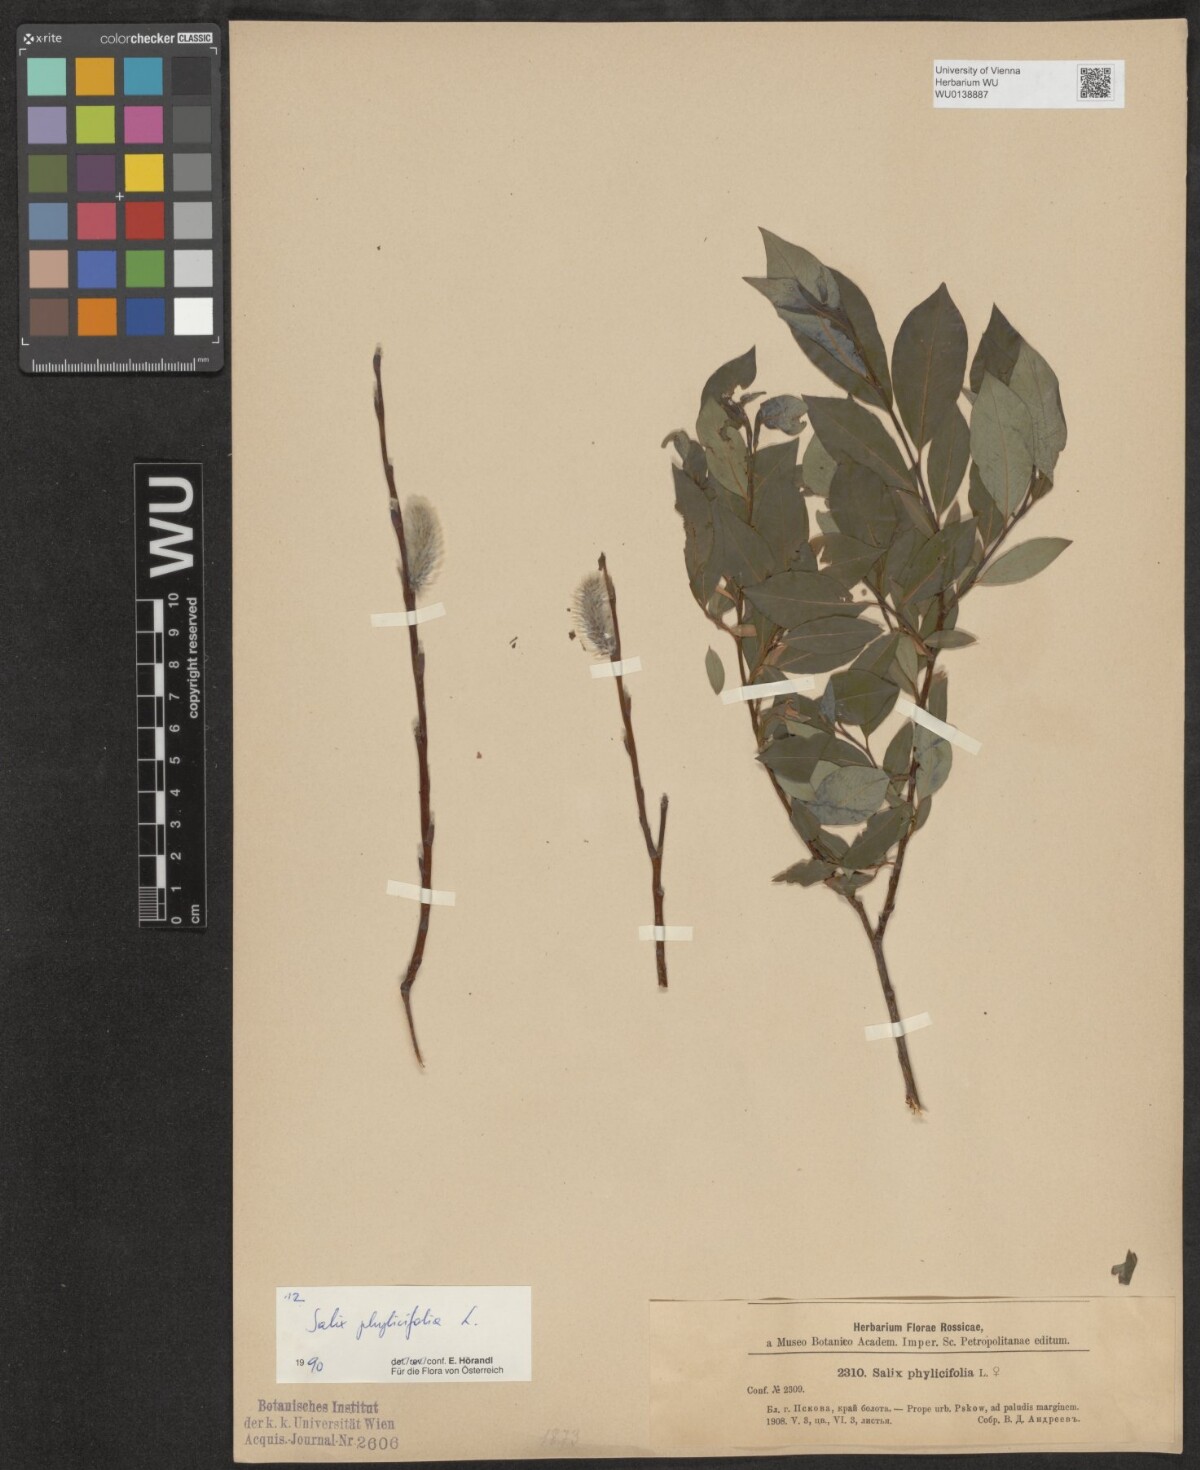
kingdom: Plantae
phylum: Tracheophyta
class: Magnoliopsida
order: Malpighiales
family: Salicaceae
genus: Salix
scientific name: Salix phylicifolia
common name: Tea-leaved willow
